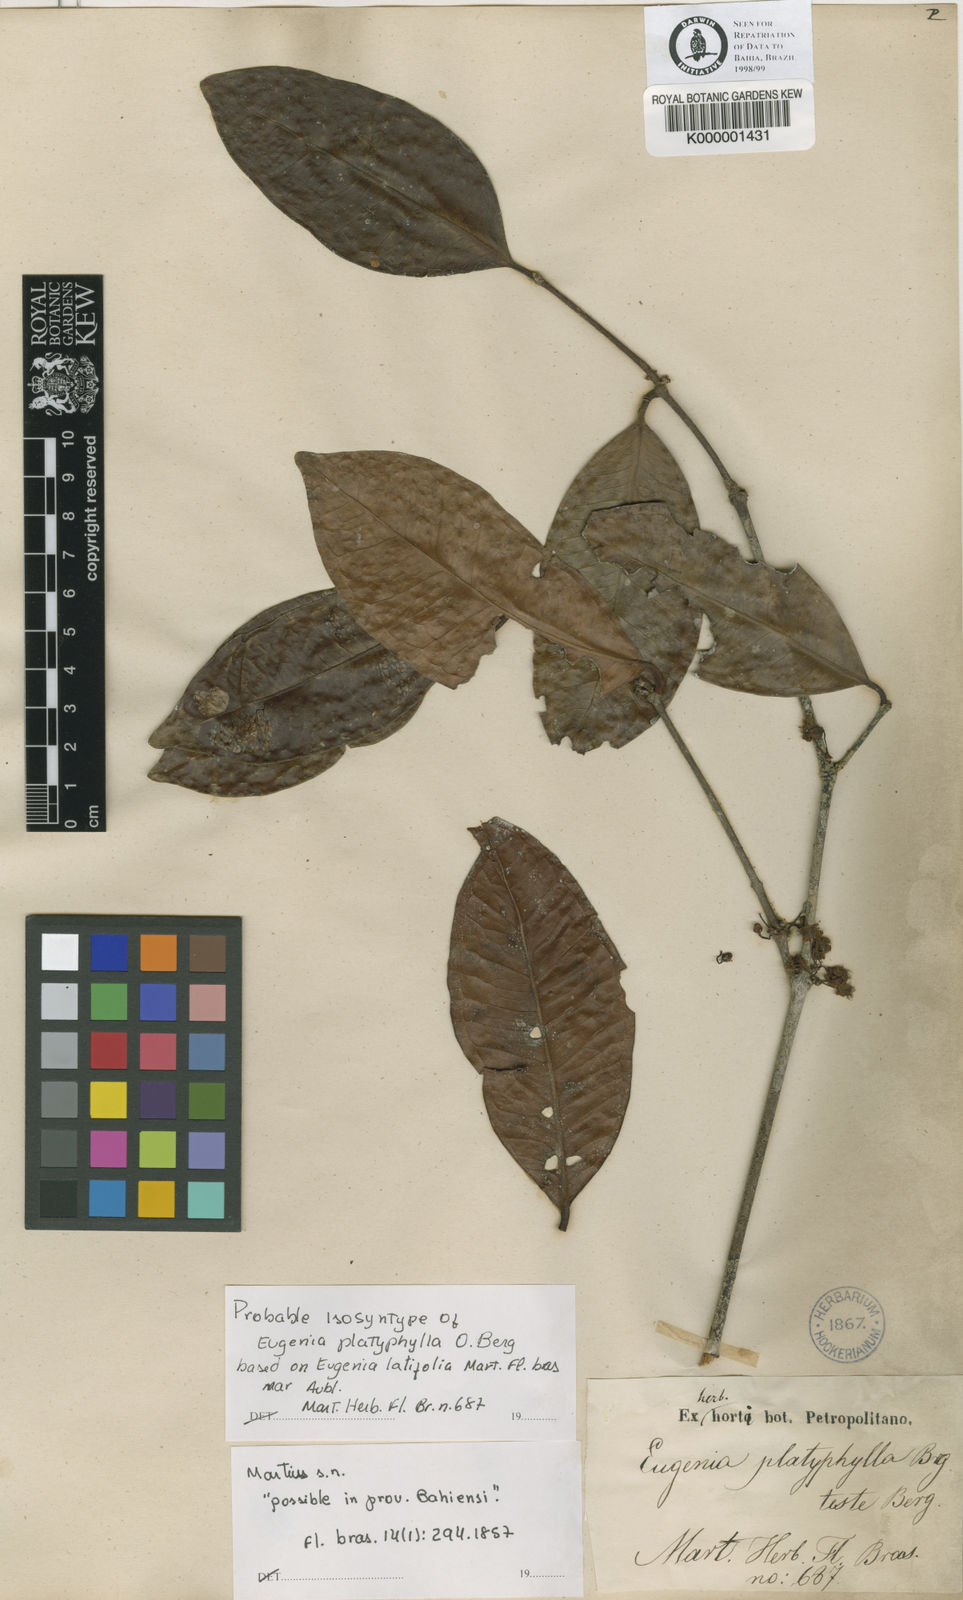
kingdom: Plantae
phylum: Tracheophyta
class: Magnoliopsida
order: Myrtales
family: Myrtaceae
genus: Eugenia
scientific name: Eugenia platyphylla
